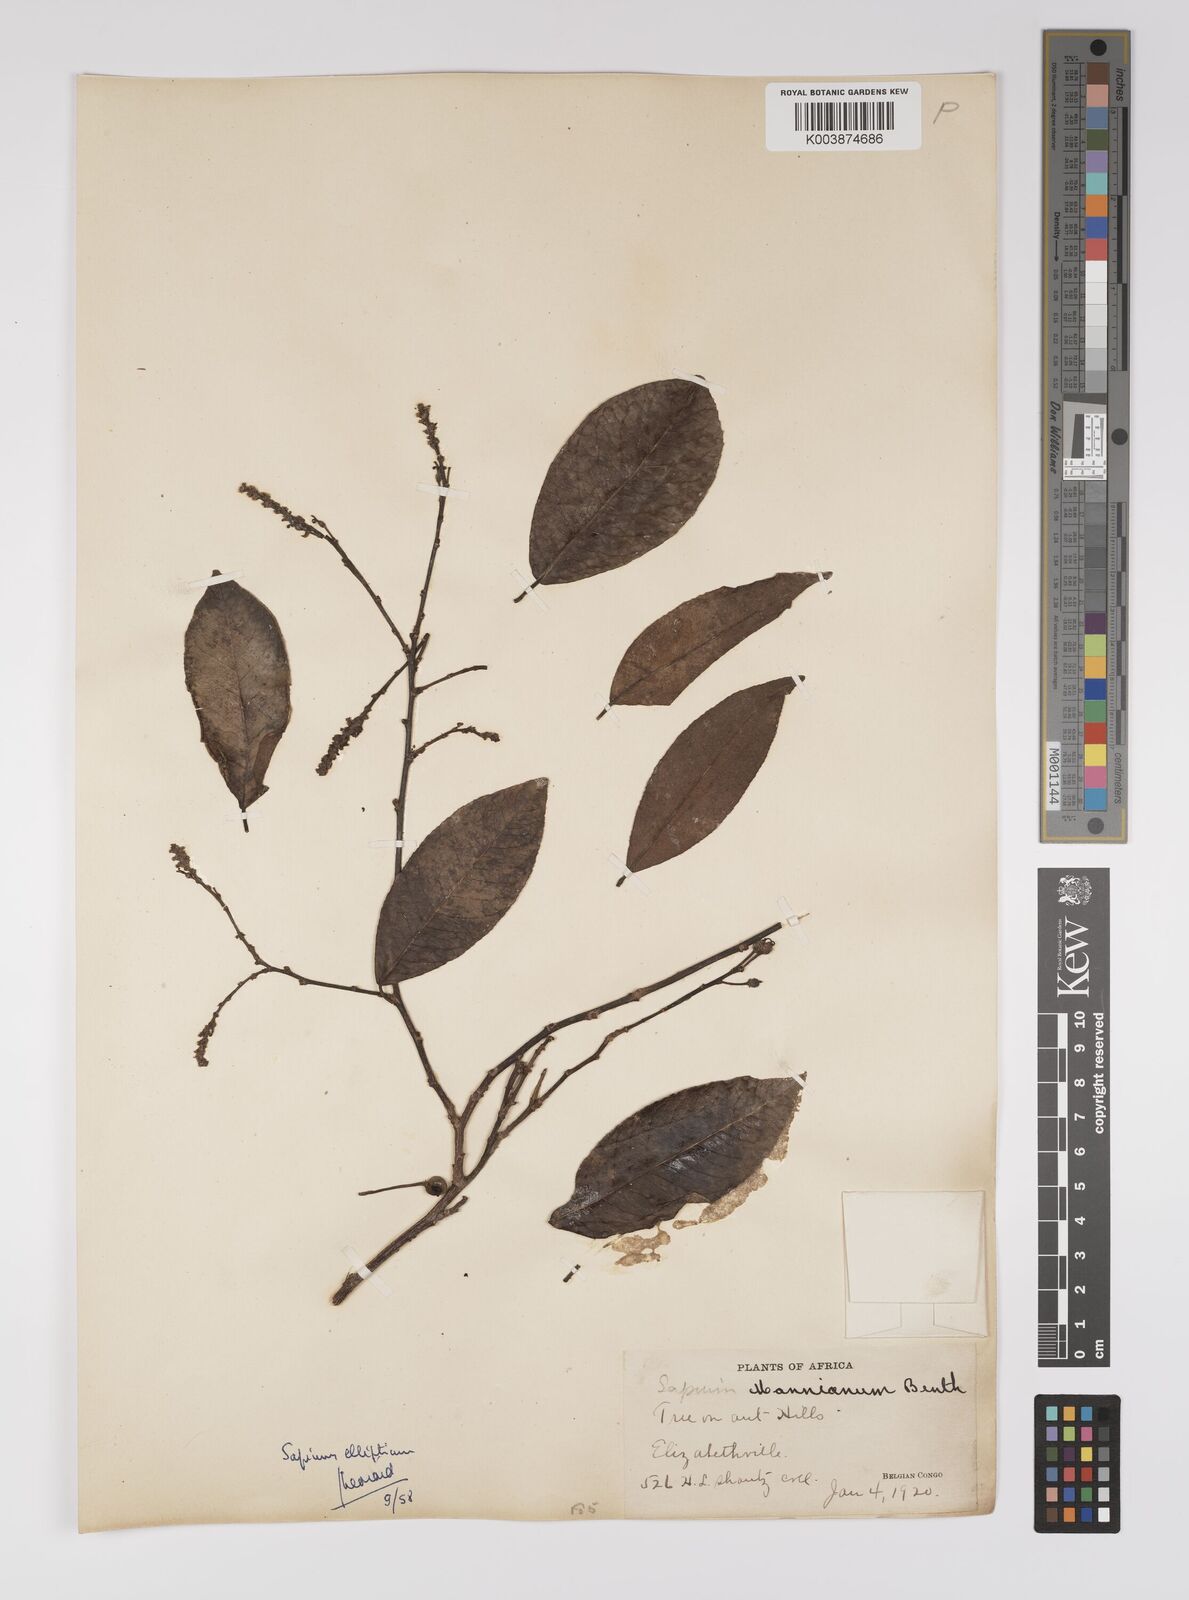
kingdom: Plantae
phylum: Tracheophyta
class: Magnoliopsida
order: Malpighiales
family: Euphorbiaceae
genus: Shirakiopsis
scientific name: Shirakiopsis elliptica
